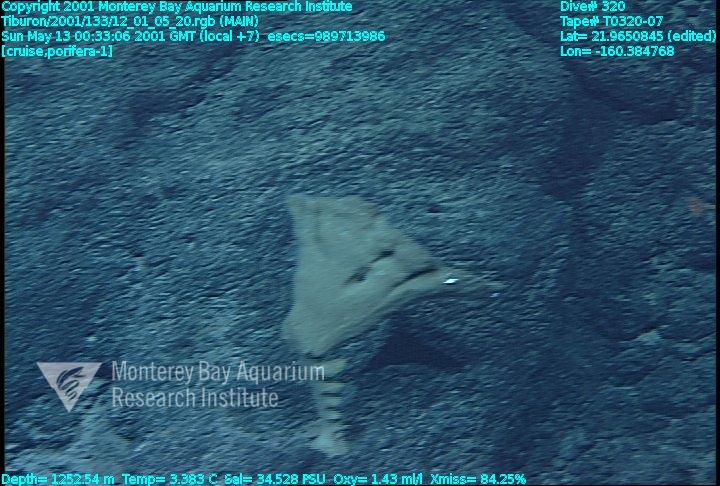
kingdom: Animalia
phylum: Porifera
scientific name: Porifera
